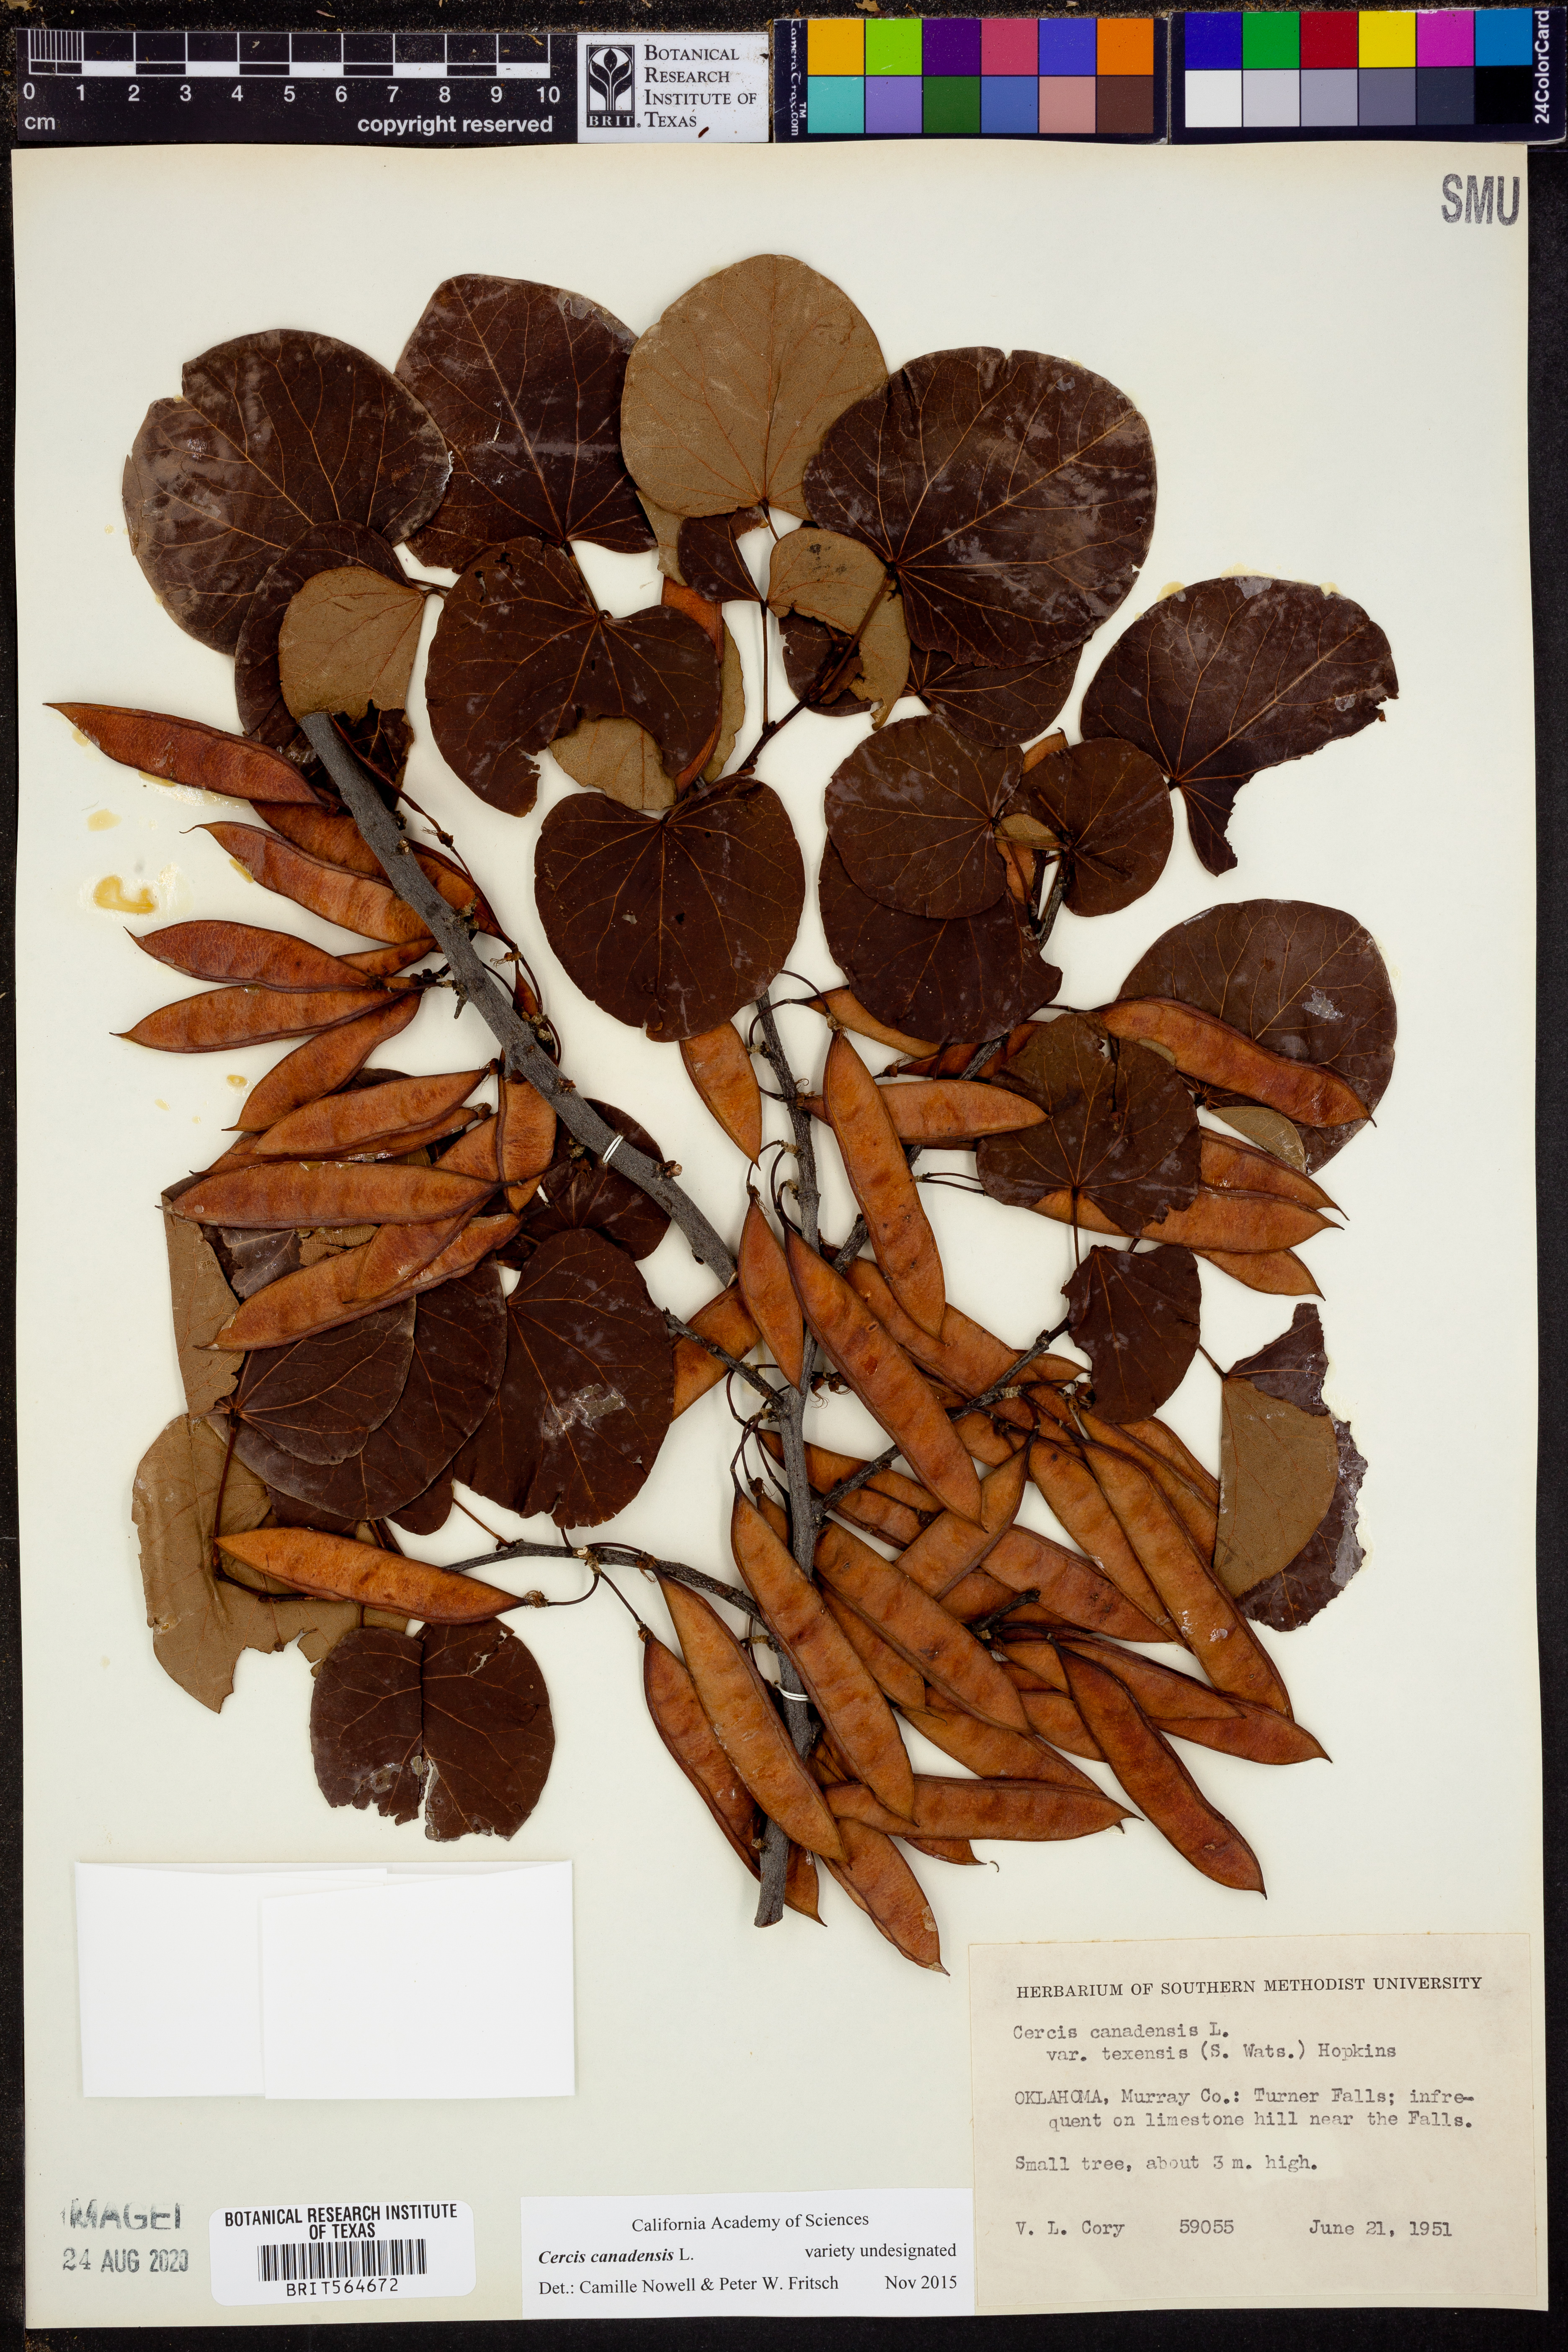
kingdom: Plantae
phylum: Tracheophyta
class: Magnoliopsida
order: Fabales
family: Fabaceae
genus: Cercis
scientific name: Cercis canadensis
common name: Eastern redbud
